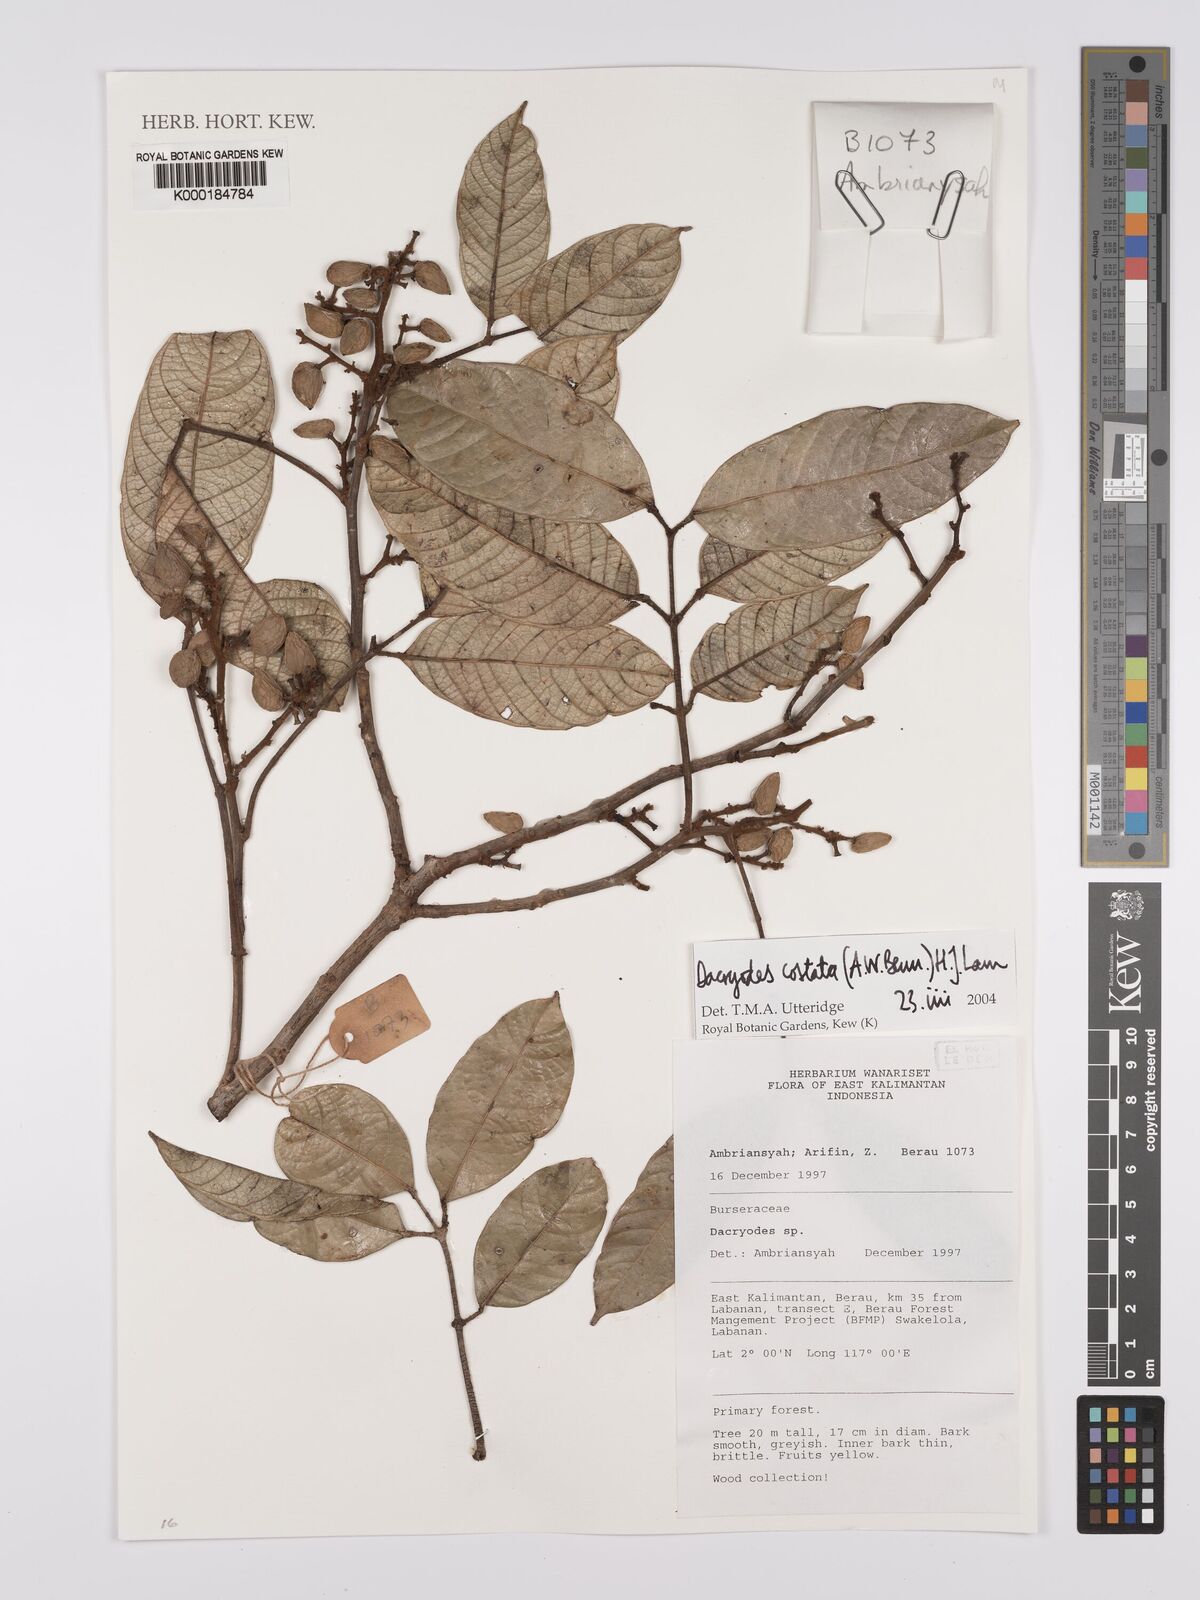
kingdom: Plantae
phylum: Tracheophyta
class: Magnoliopsida
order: Sapindales
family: Burseraceae
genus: Dacryodes
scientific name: Dacryodes costata
